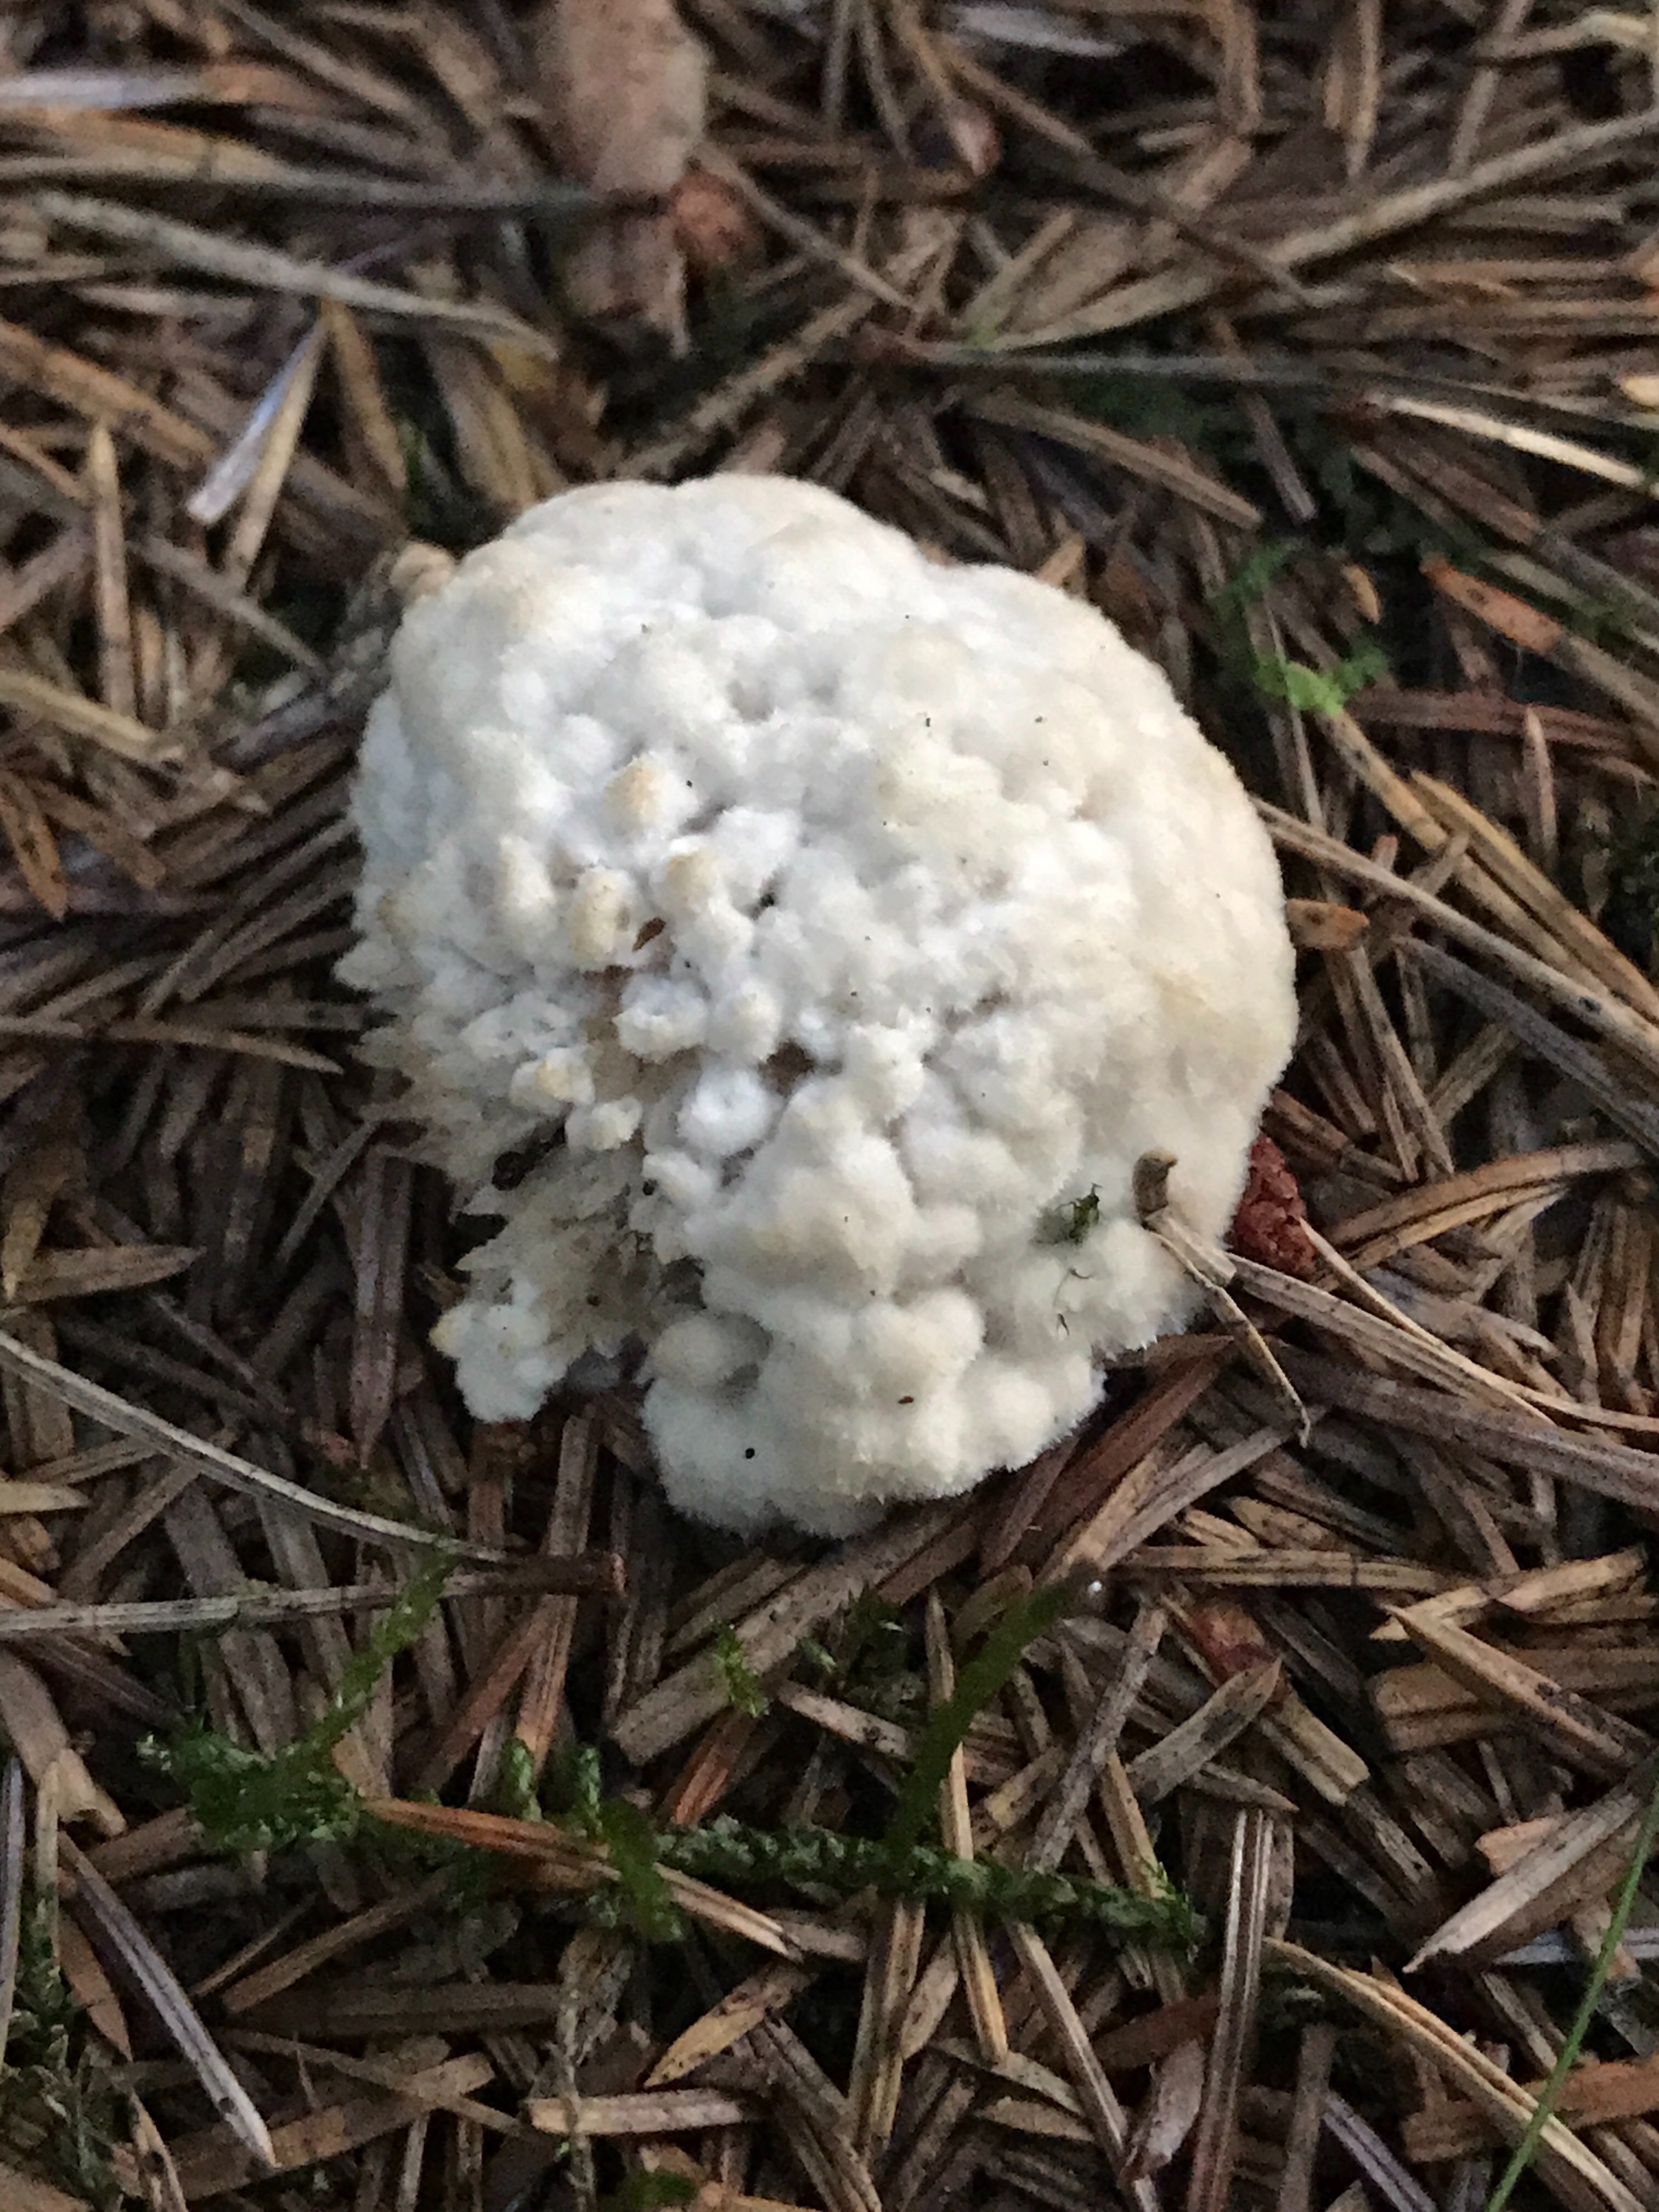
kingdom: Fungi
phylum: Basidiomycota
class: Agaricomycetes
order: Polyporales
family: Dacryobolaceae
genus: Postia
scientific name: Postia ptychogaster
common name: støvende kødporesvamp
